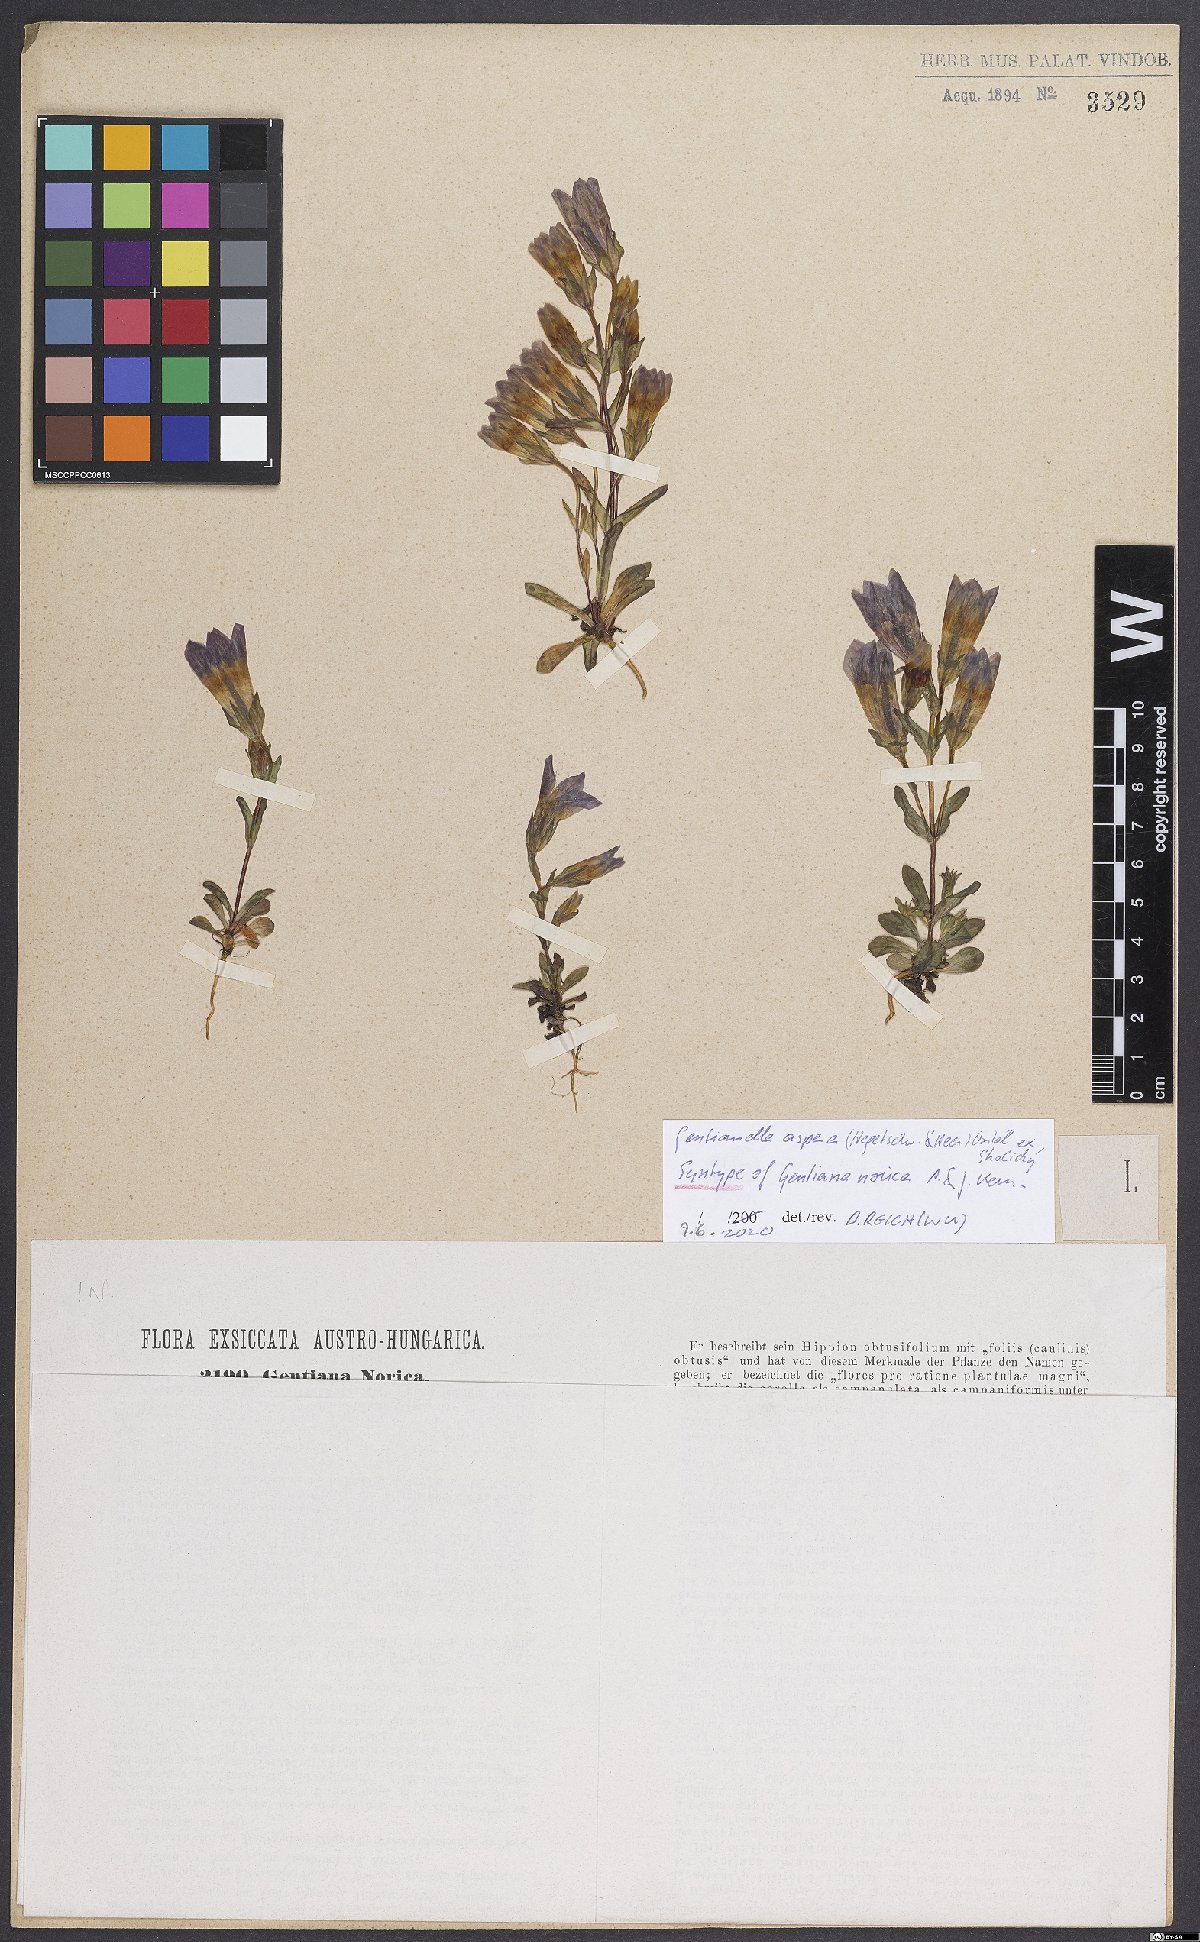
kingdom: Plantae
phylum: Tracheophyta
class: Magnoliopsida
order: Gentianales
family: Gentianaceae
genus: Gentianella
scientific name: Gentianella obtusifolia
